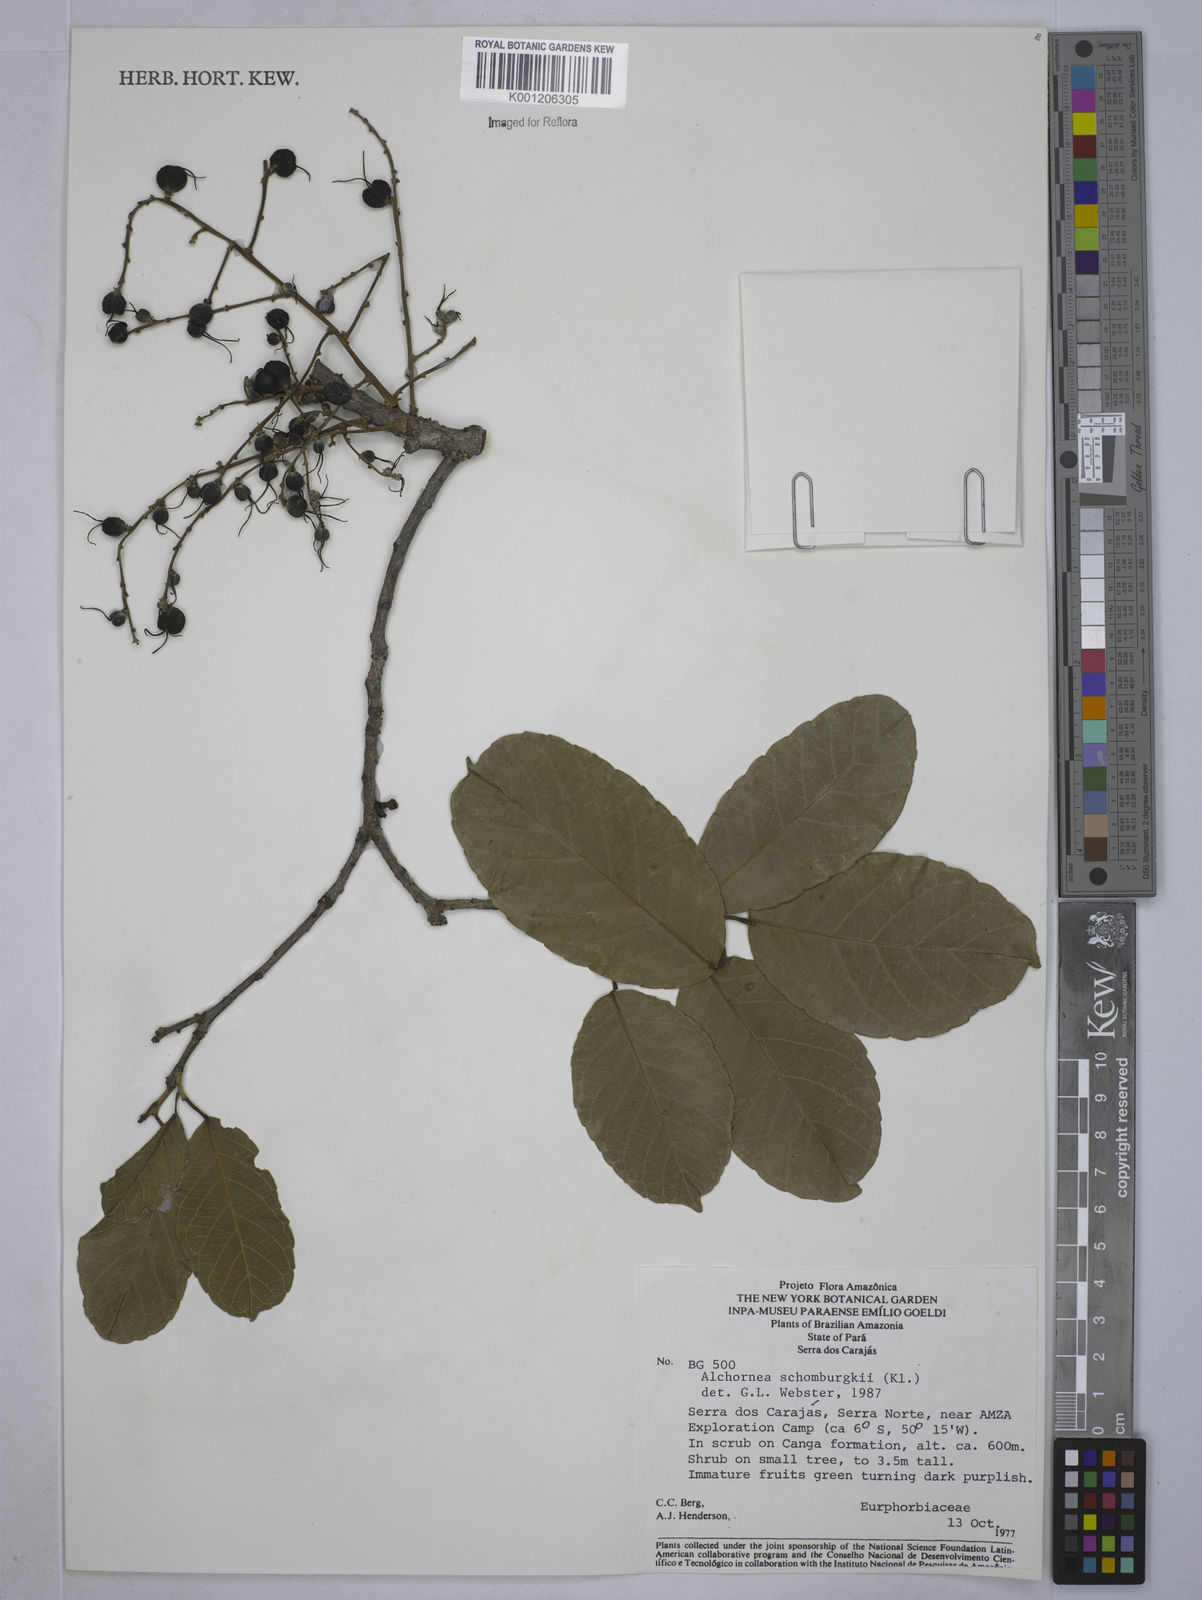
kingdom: Plantae
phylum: Tracheophyta
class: Magnoliopsida
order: Malpighiales
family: Euphorbiaceae
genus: Alchornea
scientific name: Alchornea discolor
